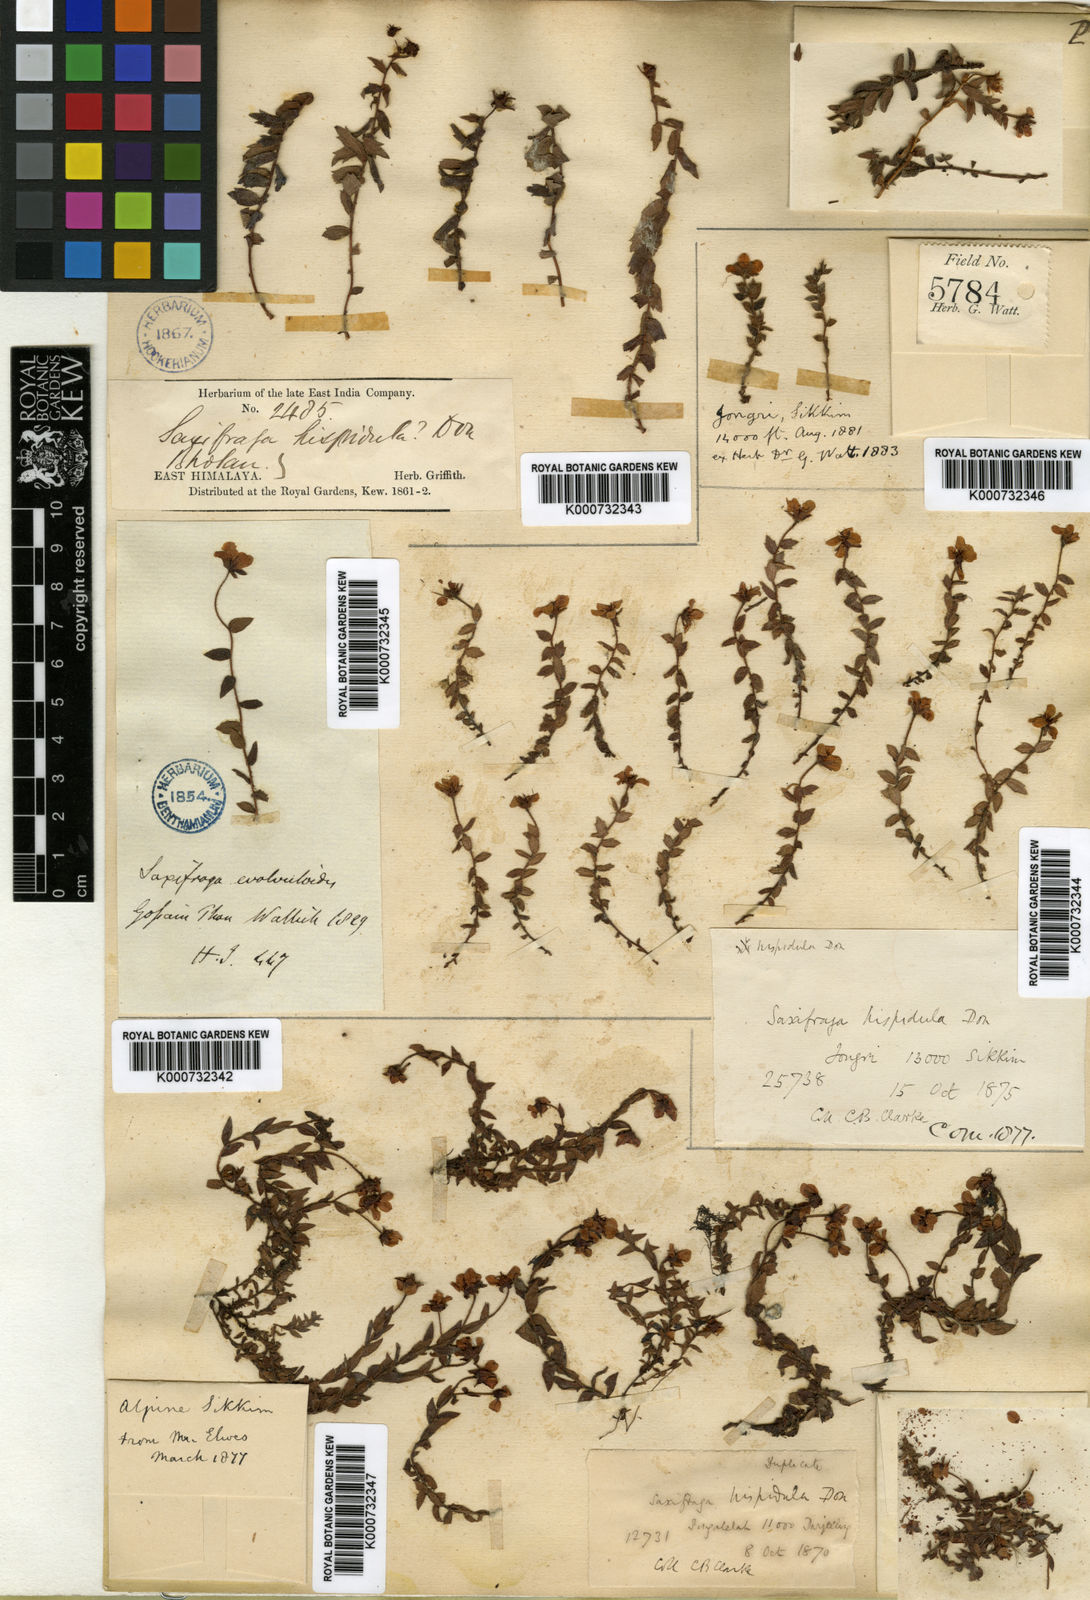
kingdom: Plantae
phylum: Tracheophyta
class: Magnoliopsida
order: Saxifragales
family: Saxifragaceae
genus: Saxifraga
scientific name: Saxifraga hispidula
